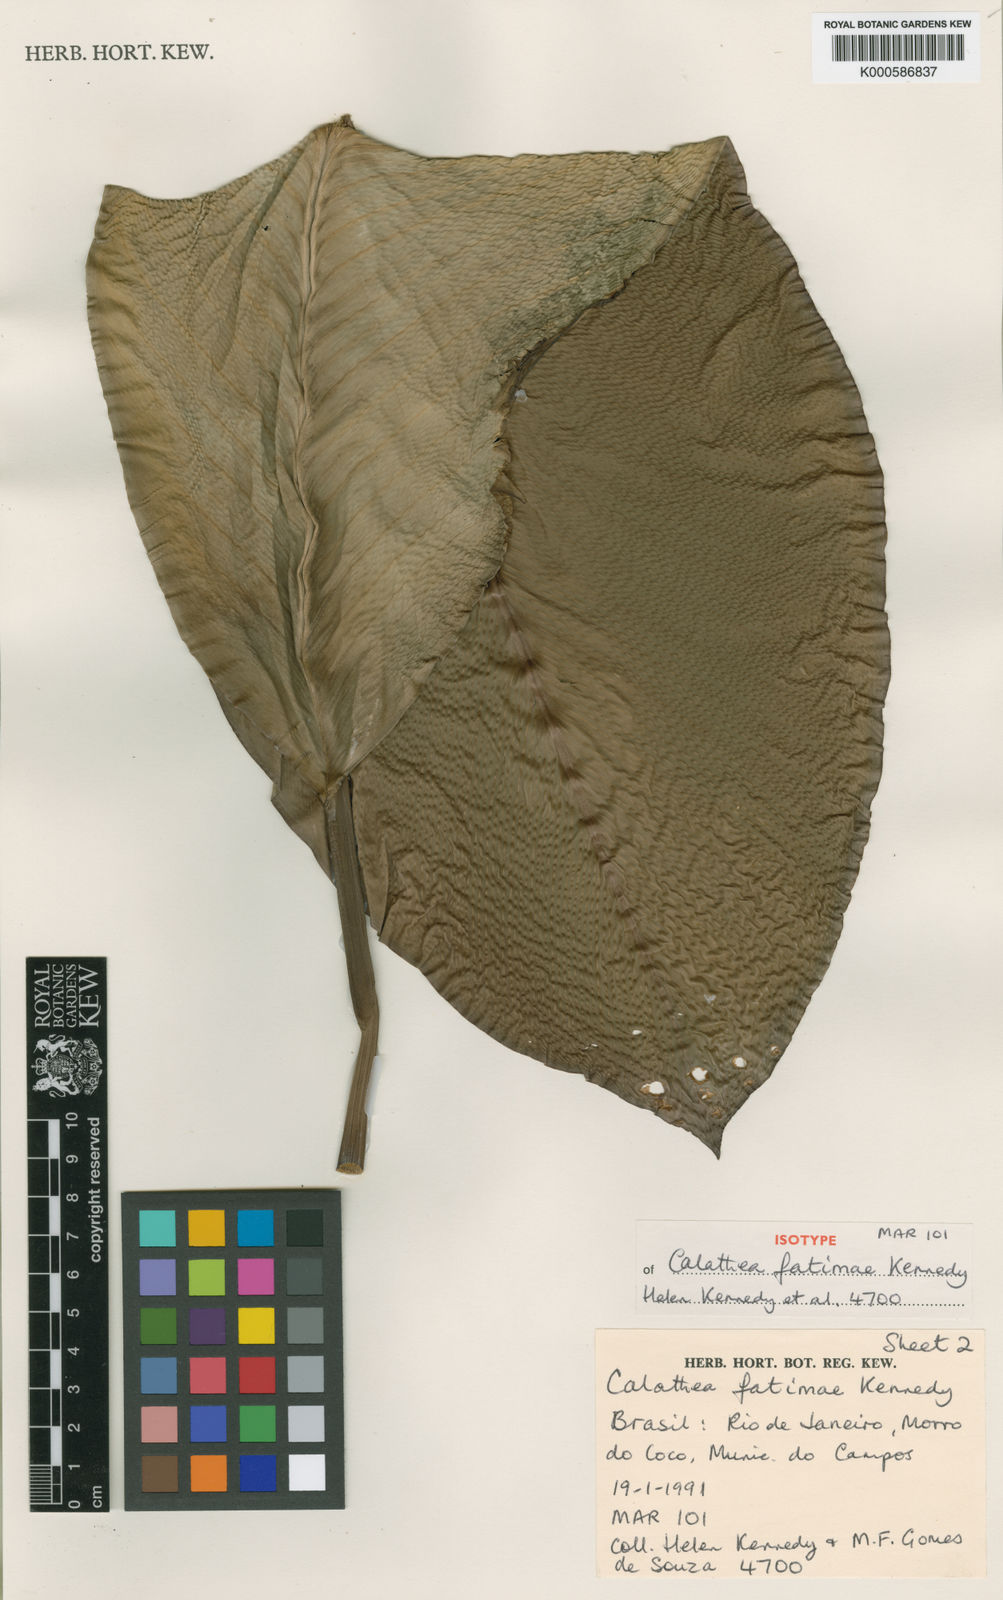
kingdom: Plantae
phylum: Tracheophyta
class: Liliopsida
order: Zingiberales
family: Marantaceae
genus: Goeppertia
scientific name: Goeppertia fatimae
